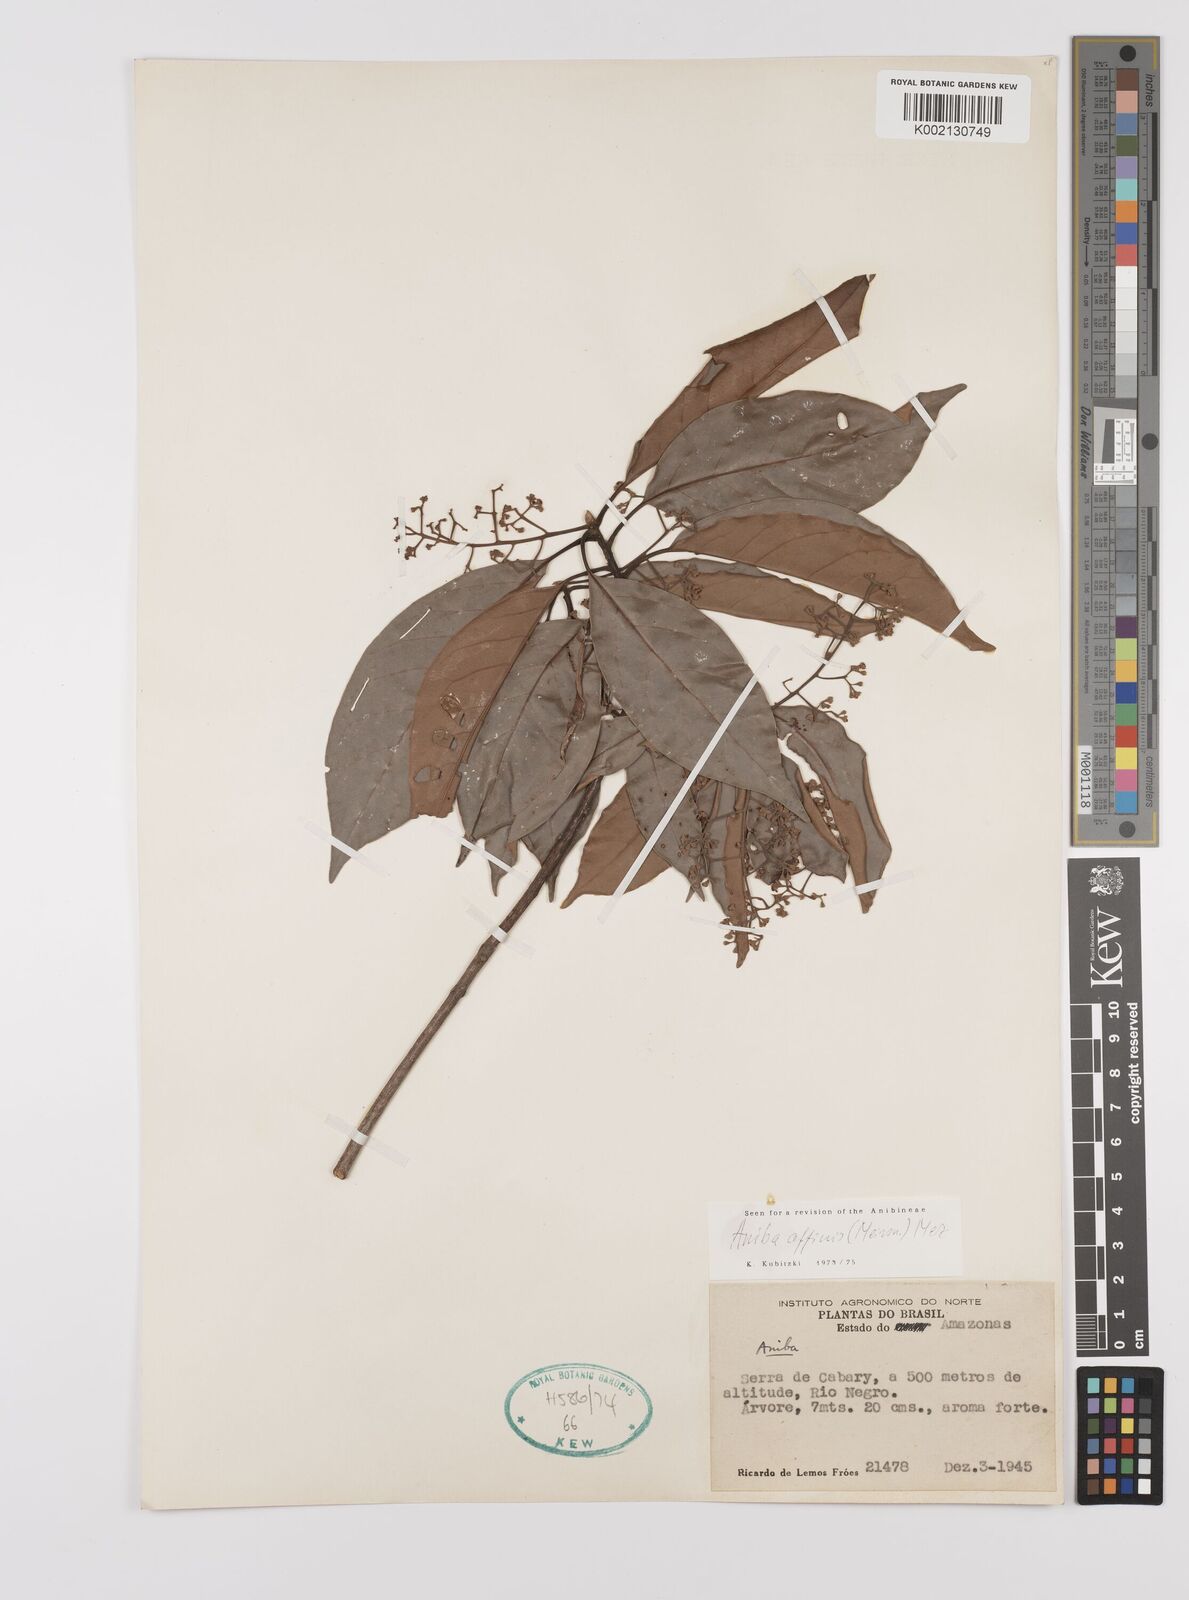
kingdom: Plantae
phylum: Tracheophyta
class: Magnoliopsida
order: Laurales
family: Lauraceae
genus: Aniba
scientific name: Aniba affinis
